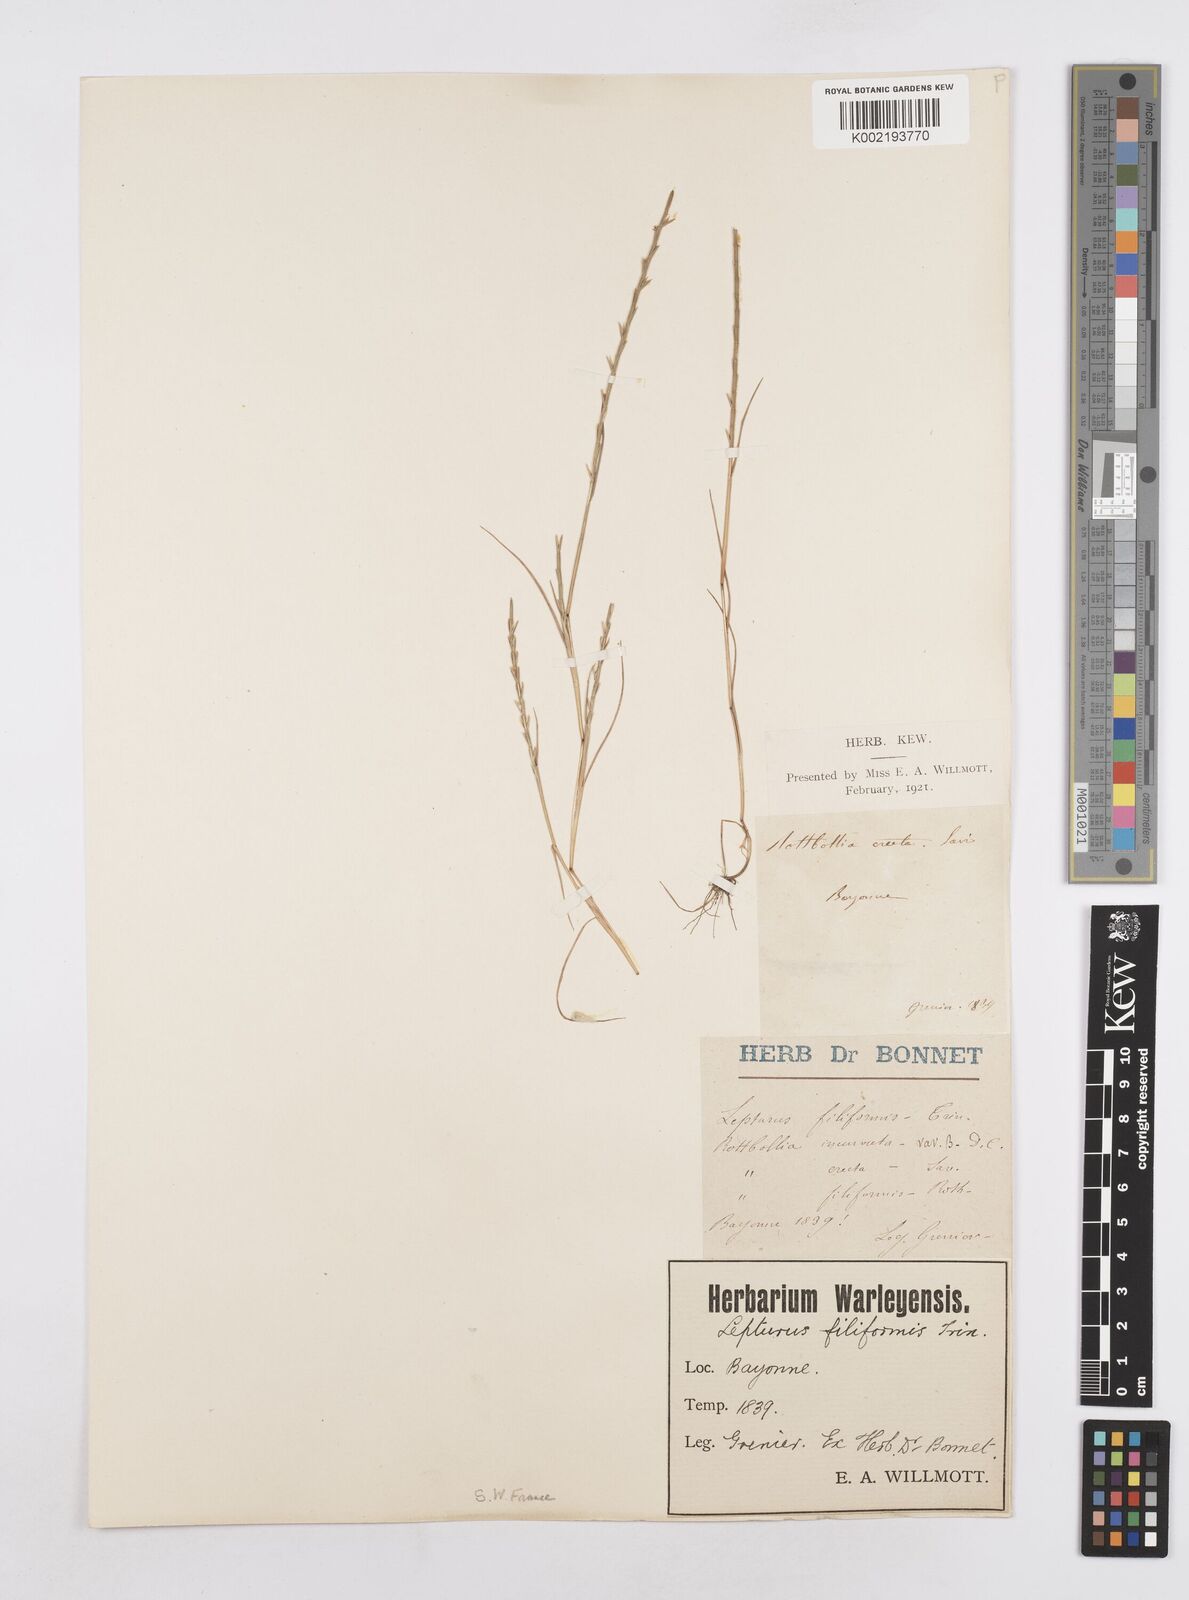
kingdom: Plantae
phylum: Tracheophyta
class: Liliopsida
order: Poales
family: Poaceae
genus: Parapholis
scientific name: Parapholis strigosa
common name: Hard-grass
